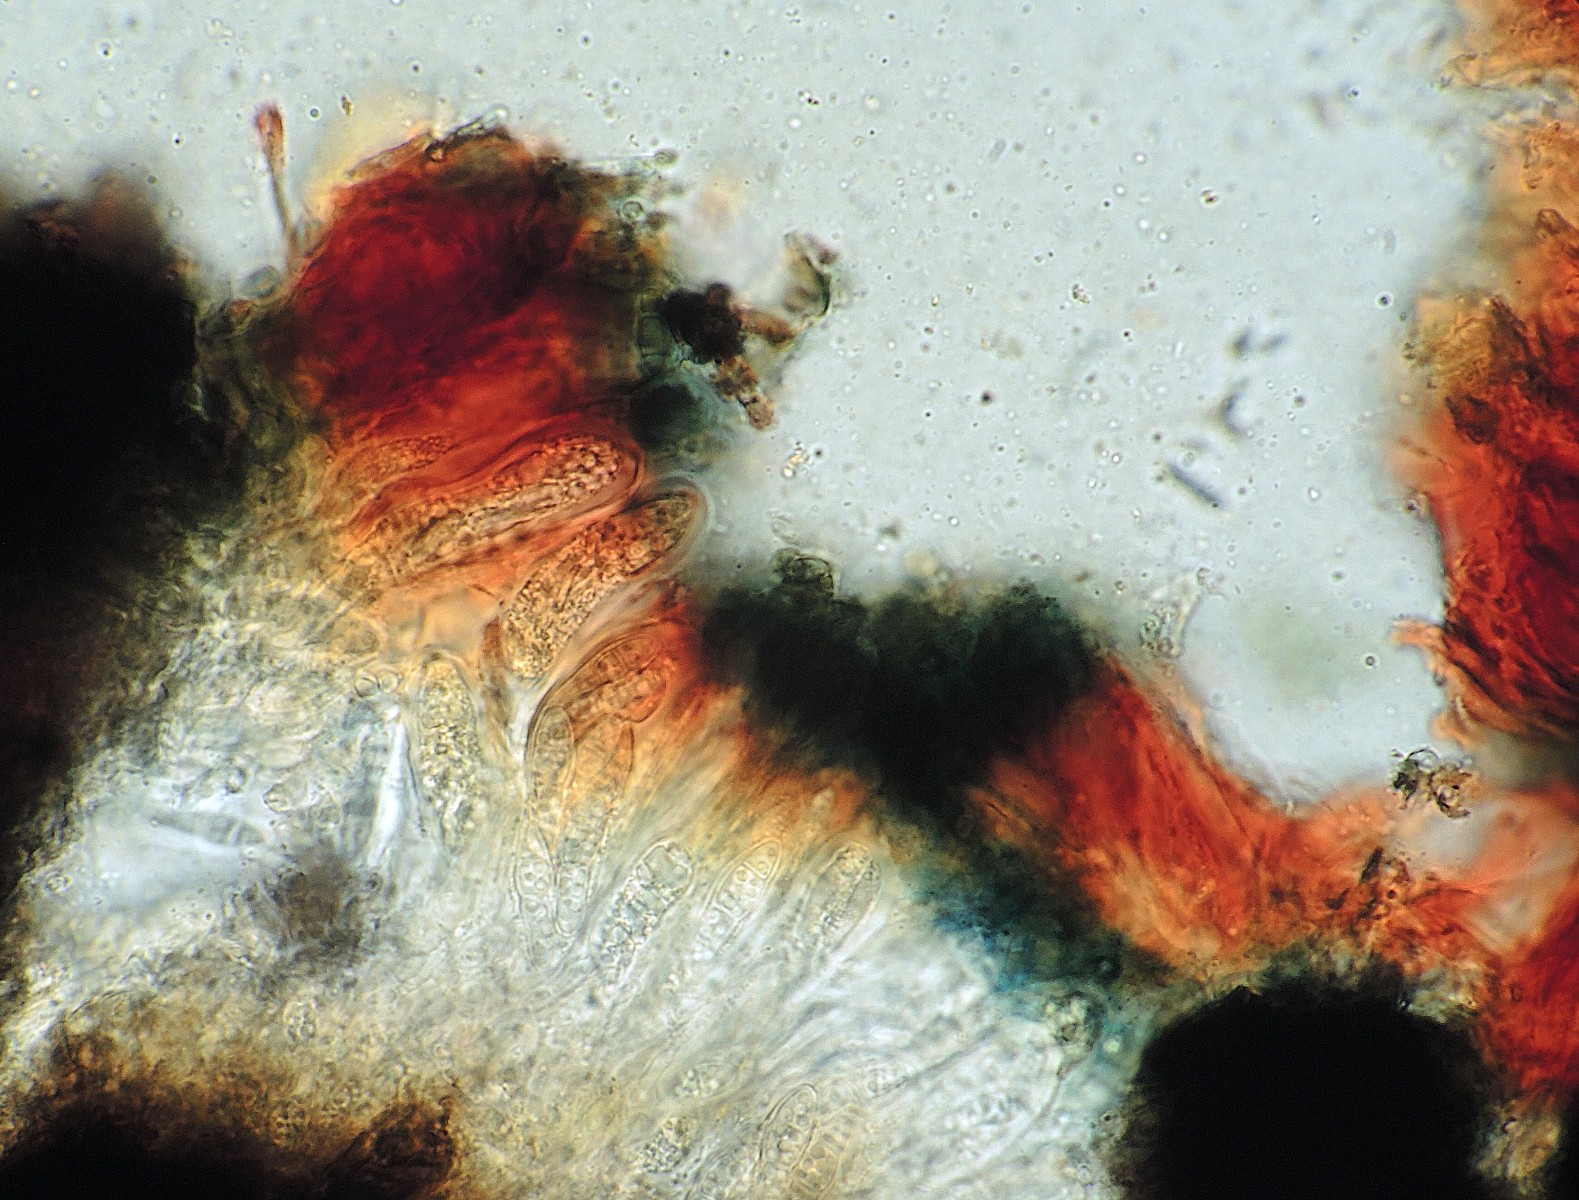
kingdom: Fungi
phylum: Ascomycota
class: Arthoniomycetes
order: Arthoniales
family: Lecanographaceae
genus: Alyxoria
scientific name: Alyxoria ochrocheila
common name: rødpudret bogstavlav
